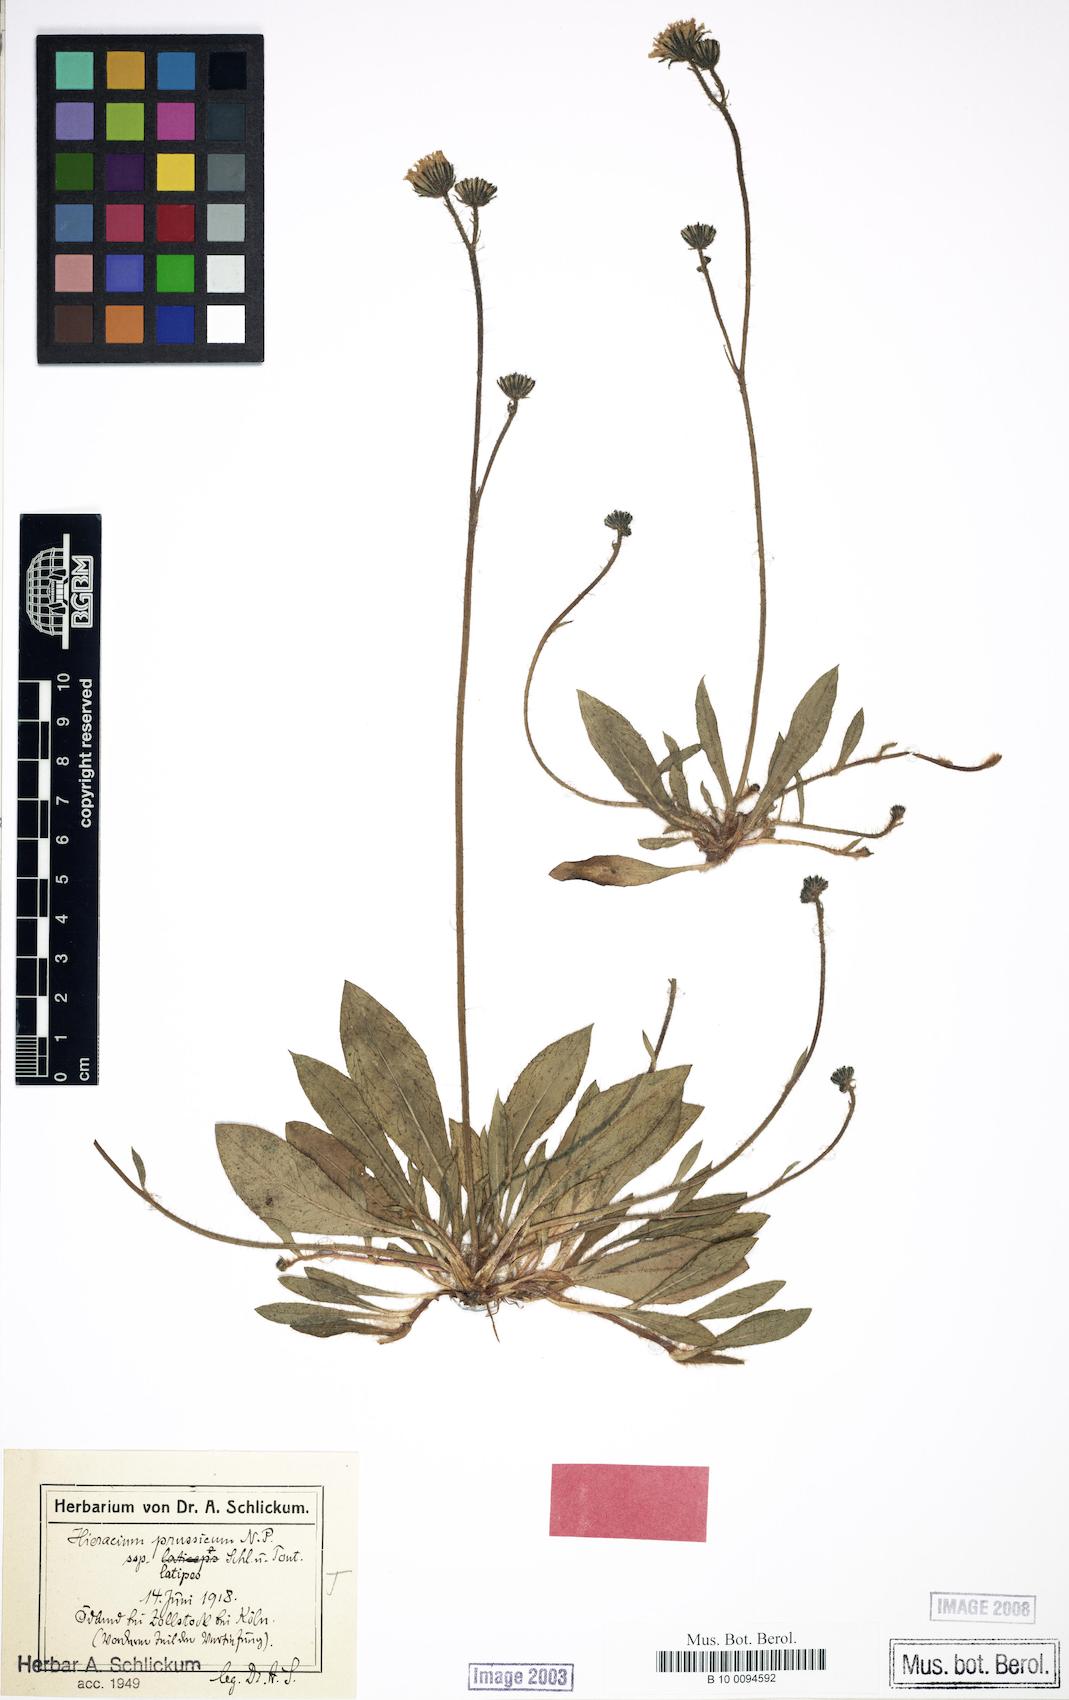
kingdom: Plantae
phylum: Tracheophyta
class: Magnoliopsida
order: Asterales
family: Asteraceae
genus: Pilosella
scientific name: Pilosella prussica
